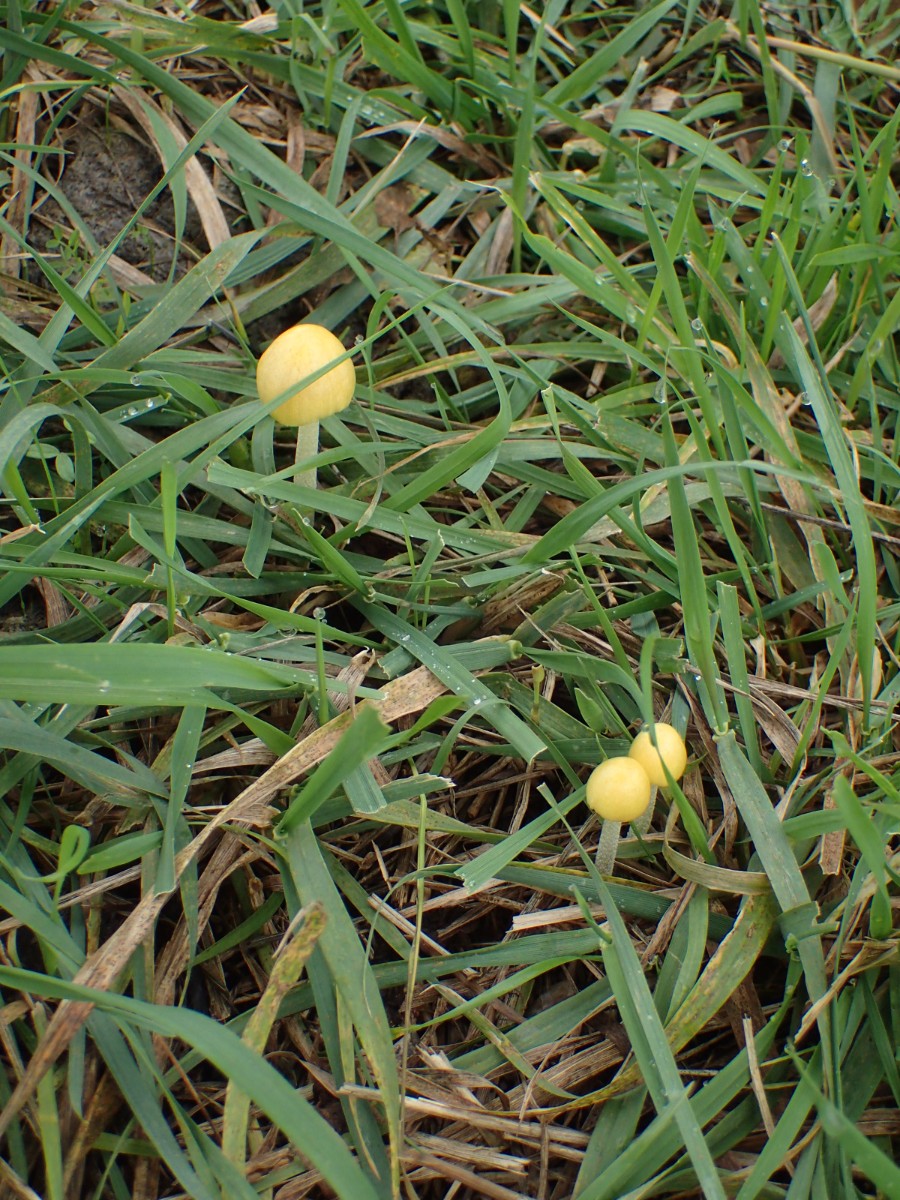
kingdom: Fungi
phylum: Basidiomycota
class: Agaricomycetes
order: Agaricales
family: Bolbitiaceae
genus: Bolbitius
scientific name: Bolbitius titubans
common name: almindelig gulhat
